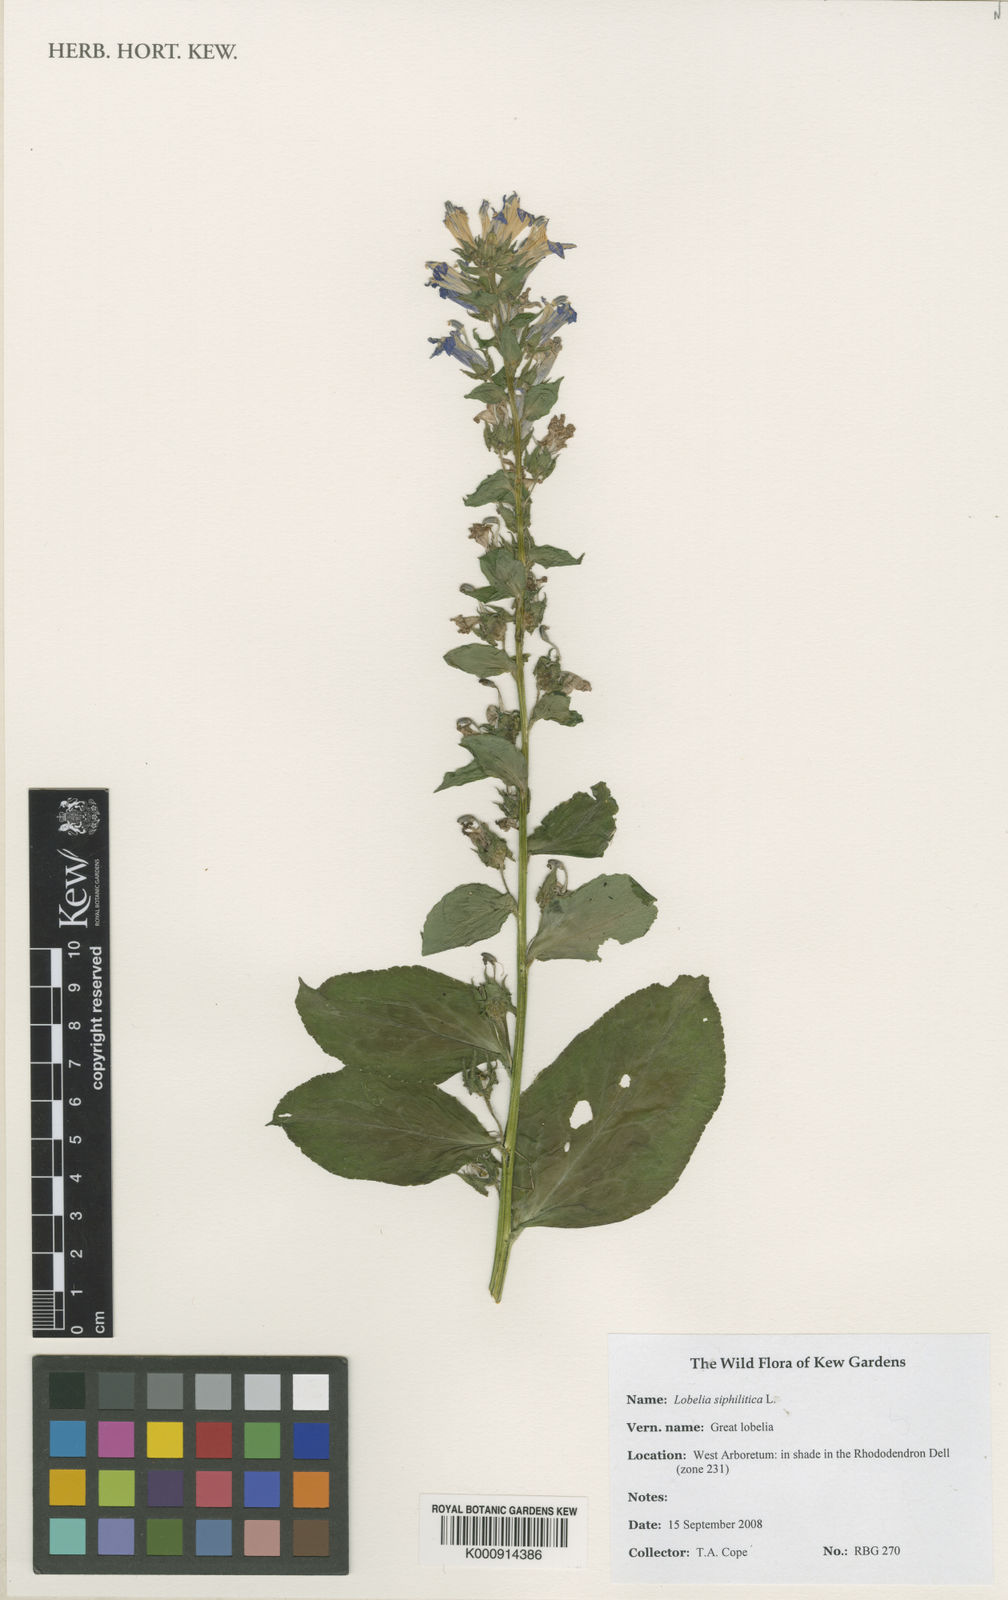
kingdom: Plantae
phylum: Tracheophyta
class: Magnoliopsida
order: Asterales
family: Campanulaceae
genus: Lobelia
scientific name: Lobelia siphilitica
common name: Great lobelia
